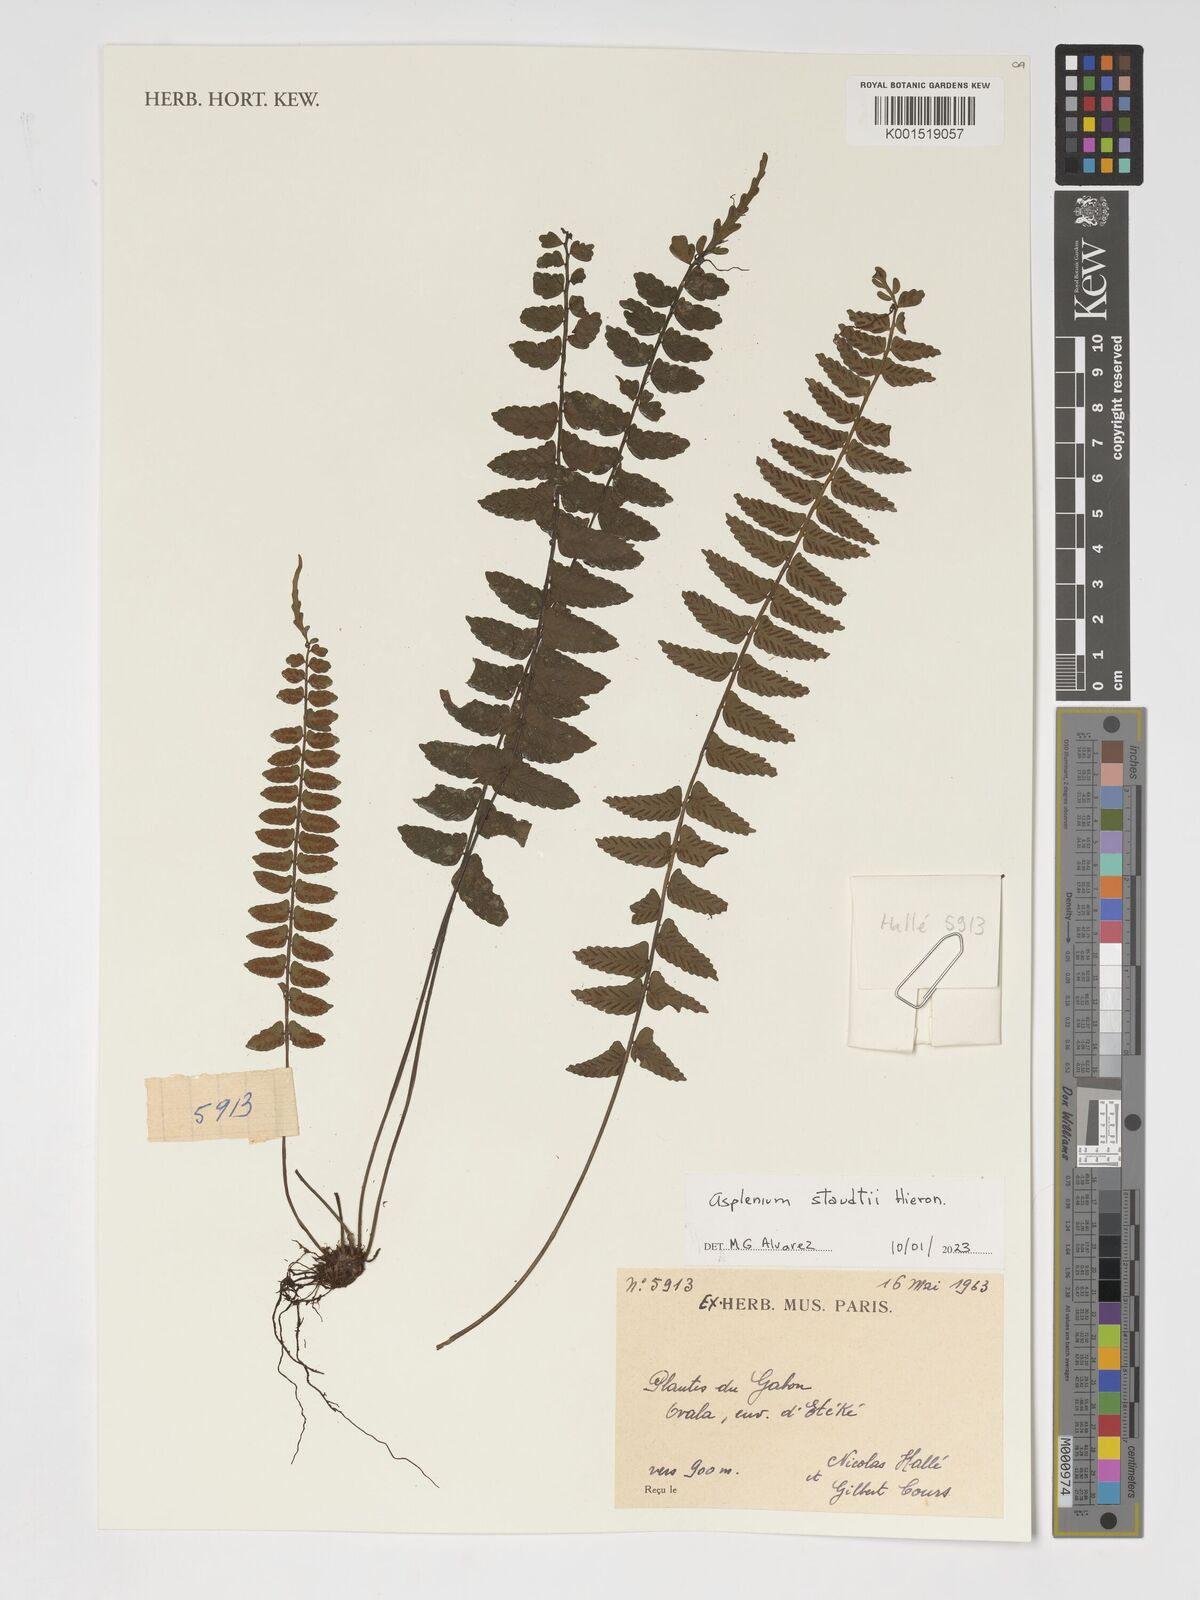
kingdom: Plantae
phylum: Tracheophyta
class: Polypodiopsida
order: Polypodiales
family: Aspleniaceae
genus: Asplenium
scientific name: Asplenium staudtii
